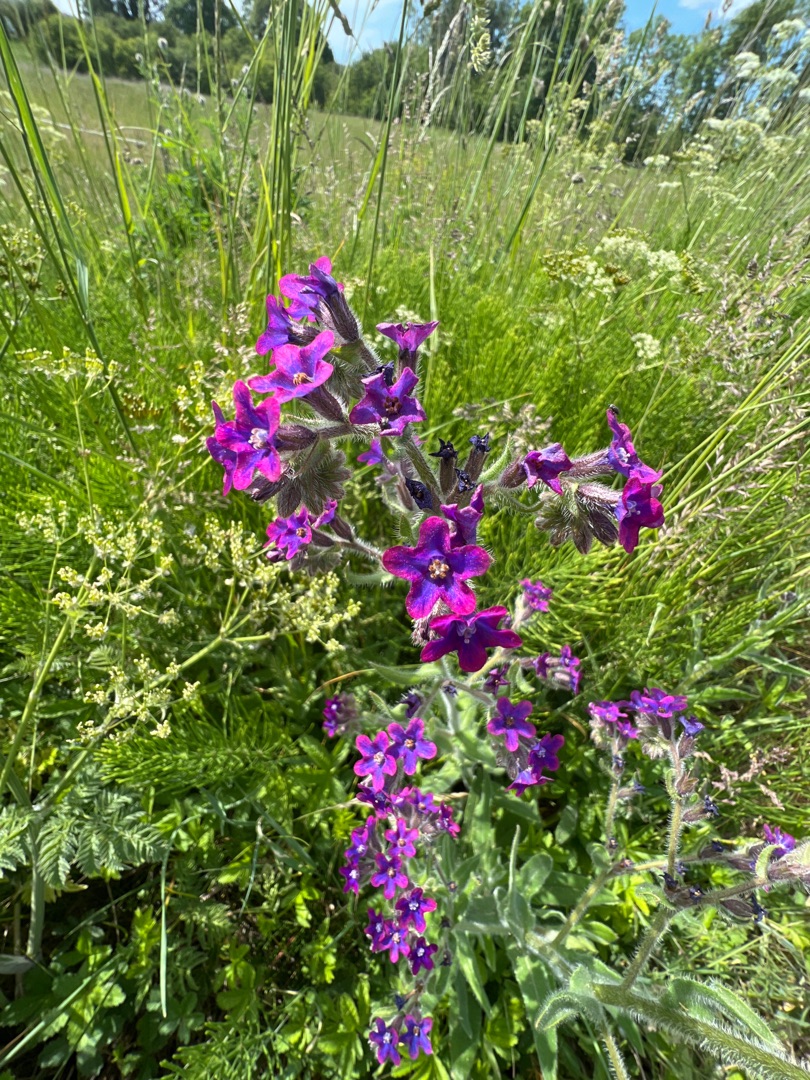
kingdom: Plantae
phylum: Tracheophyta
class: Magnoliopsida
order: Boraginales
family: Boraginaceae
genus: Anchusa
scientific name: Anchusa officinalis
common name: Læge-oksetunge
